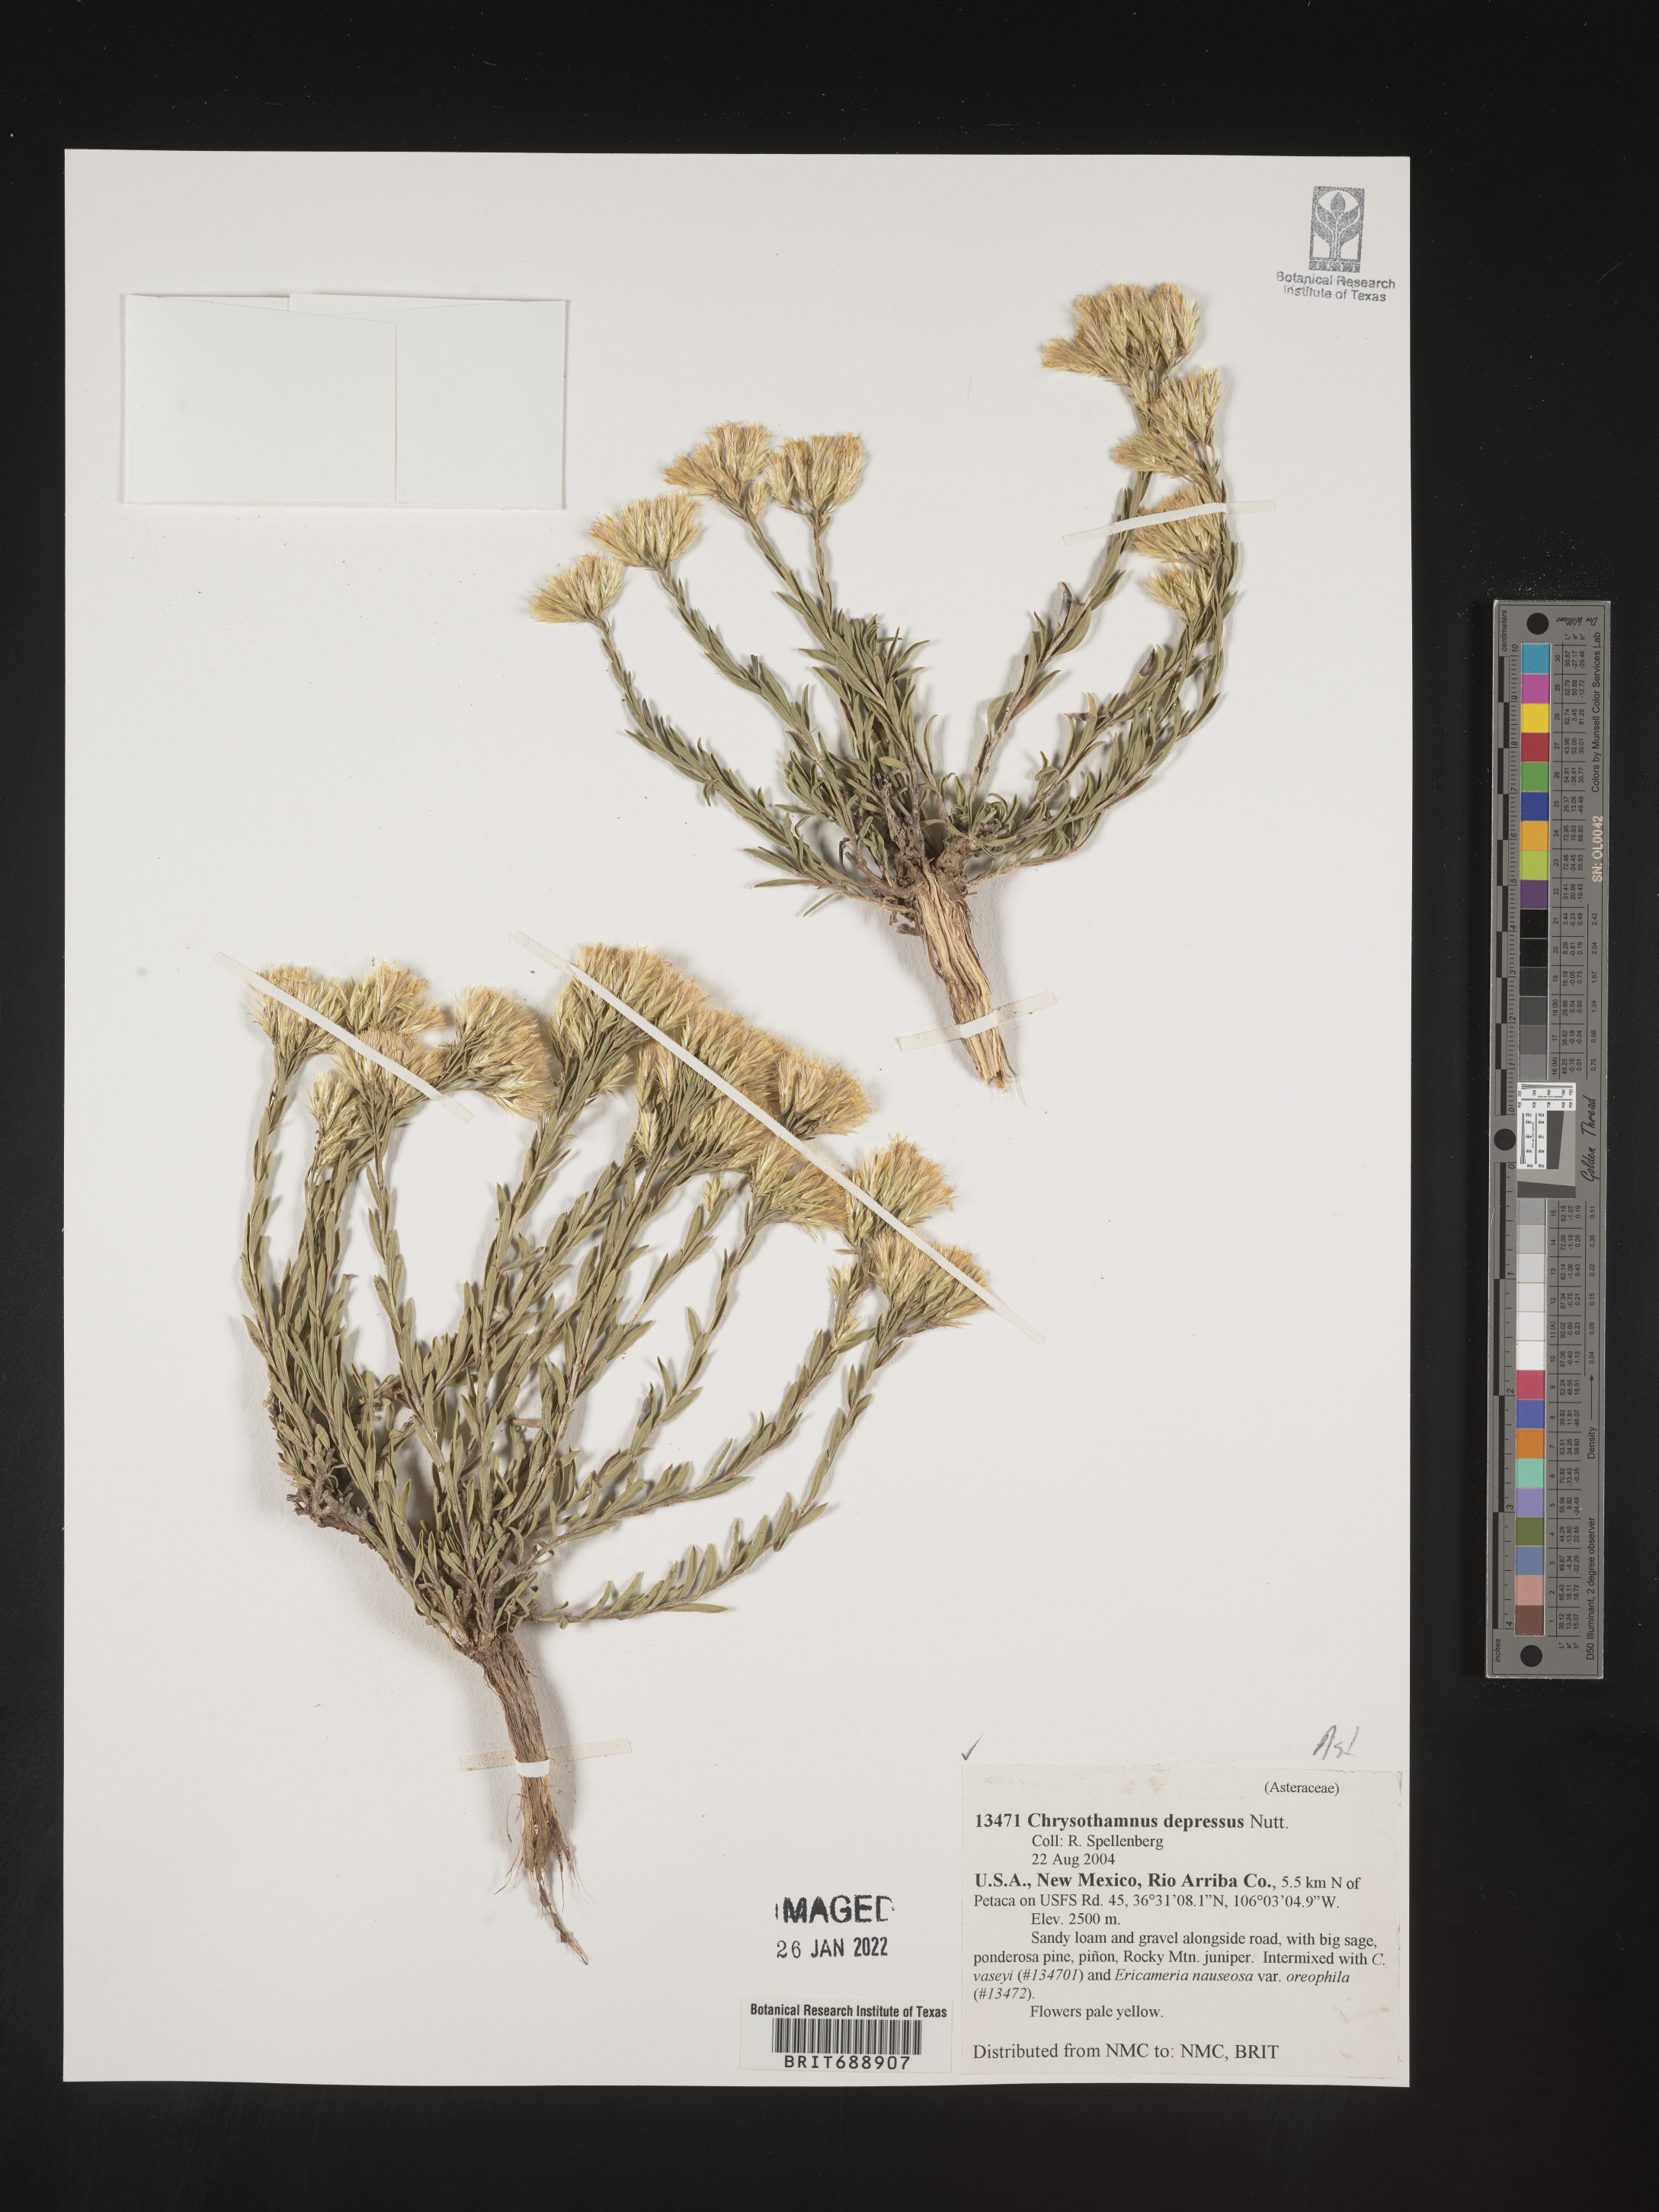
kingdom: Plantae
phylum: Tracheophyta
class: Magnoliopsida
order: Asterales
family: Asteraceae
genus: Chrysothamnus
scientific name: Chrysothamnus depressus
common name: Long-flower rabbitbrush
